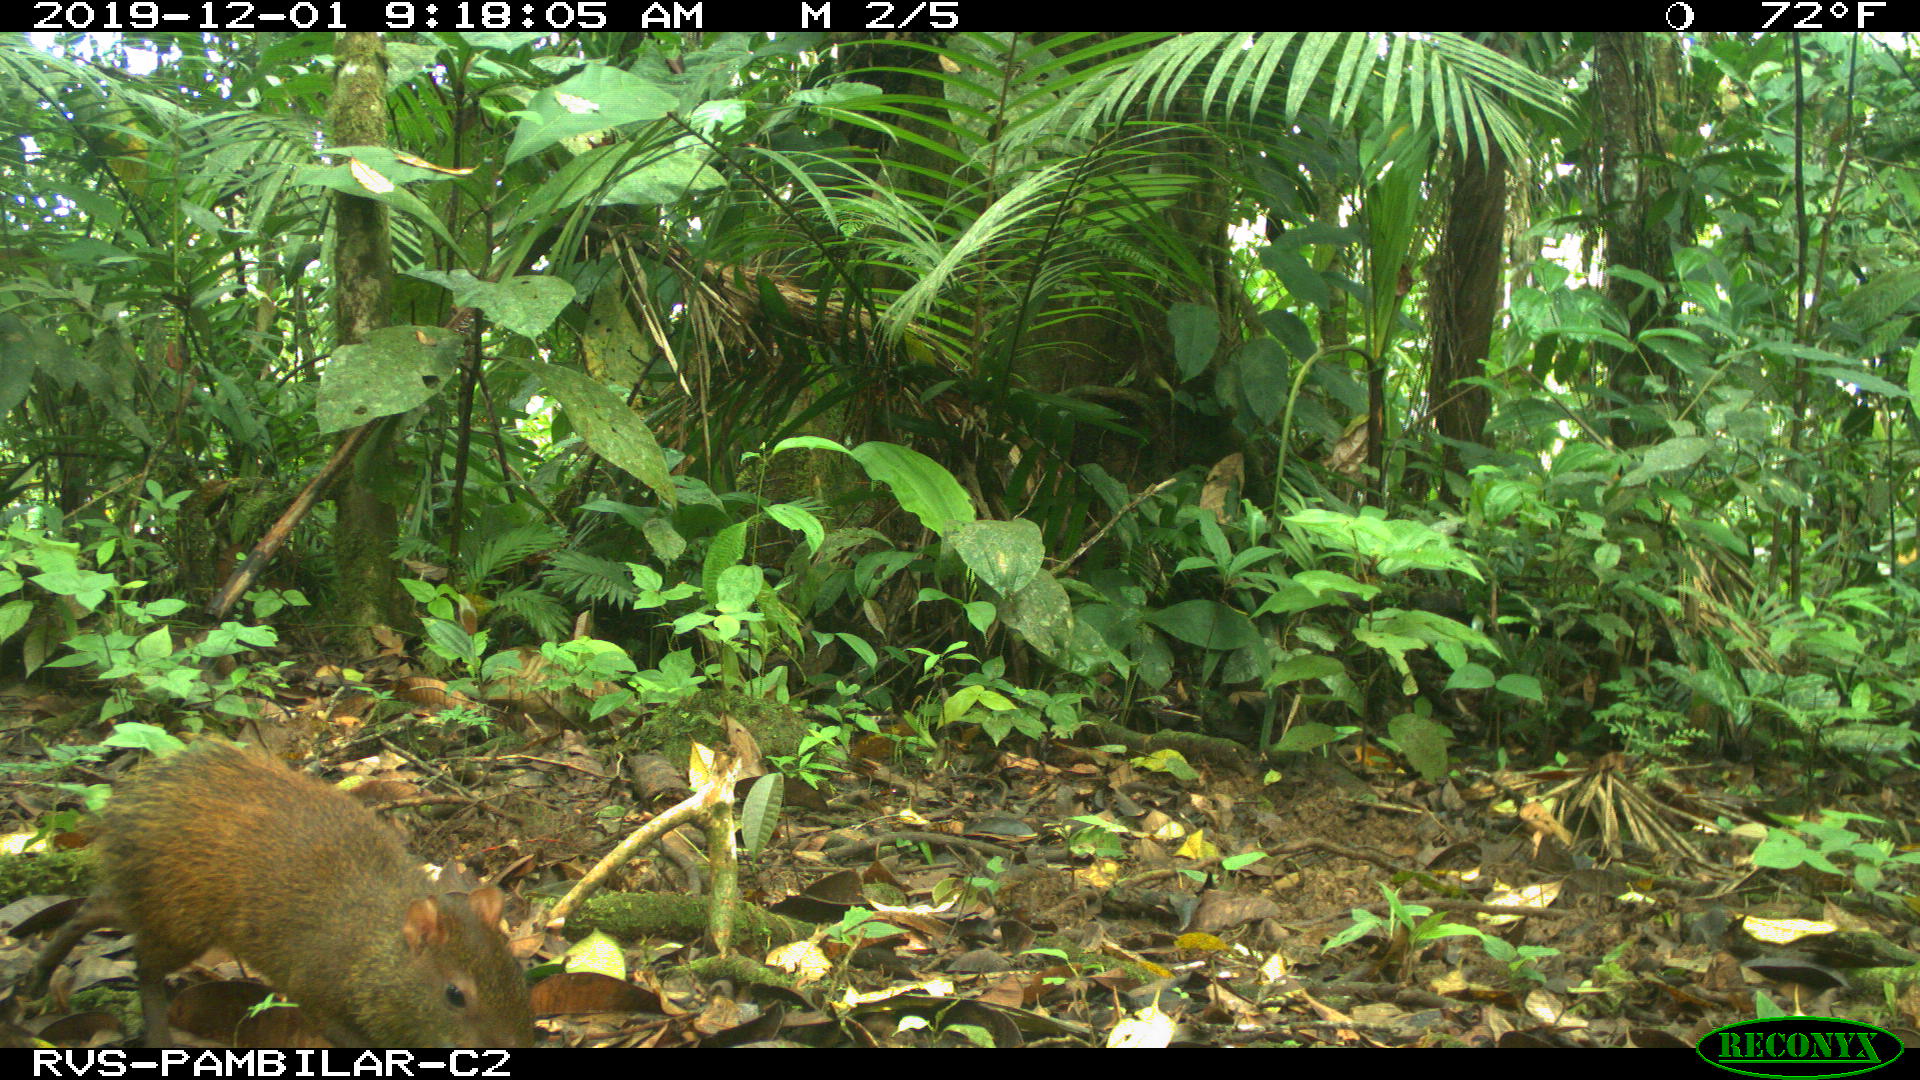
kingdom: Animalia
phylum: Chordata
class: Mammalia
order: Rodentia
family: Dasyproctidae
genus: Dasyprocta
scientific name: Dasyprocta punctata
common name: Central american agouti
